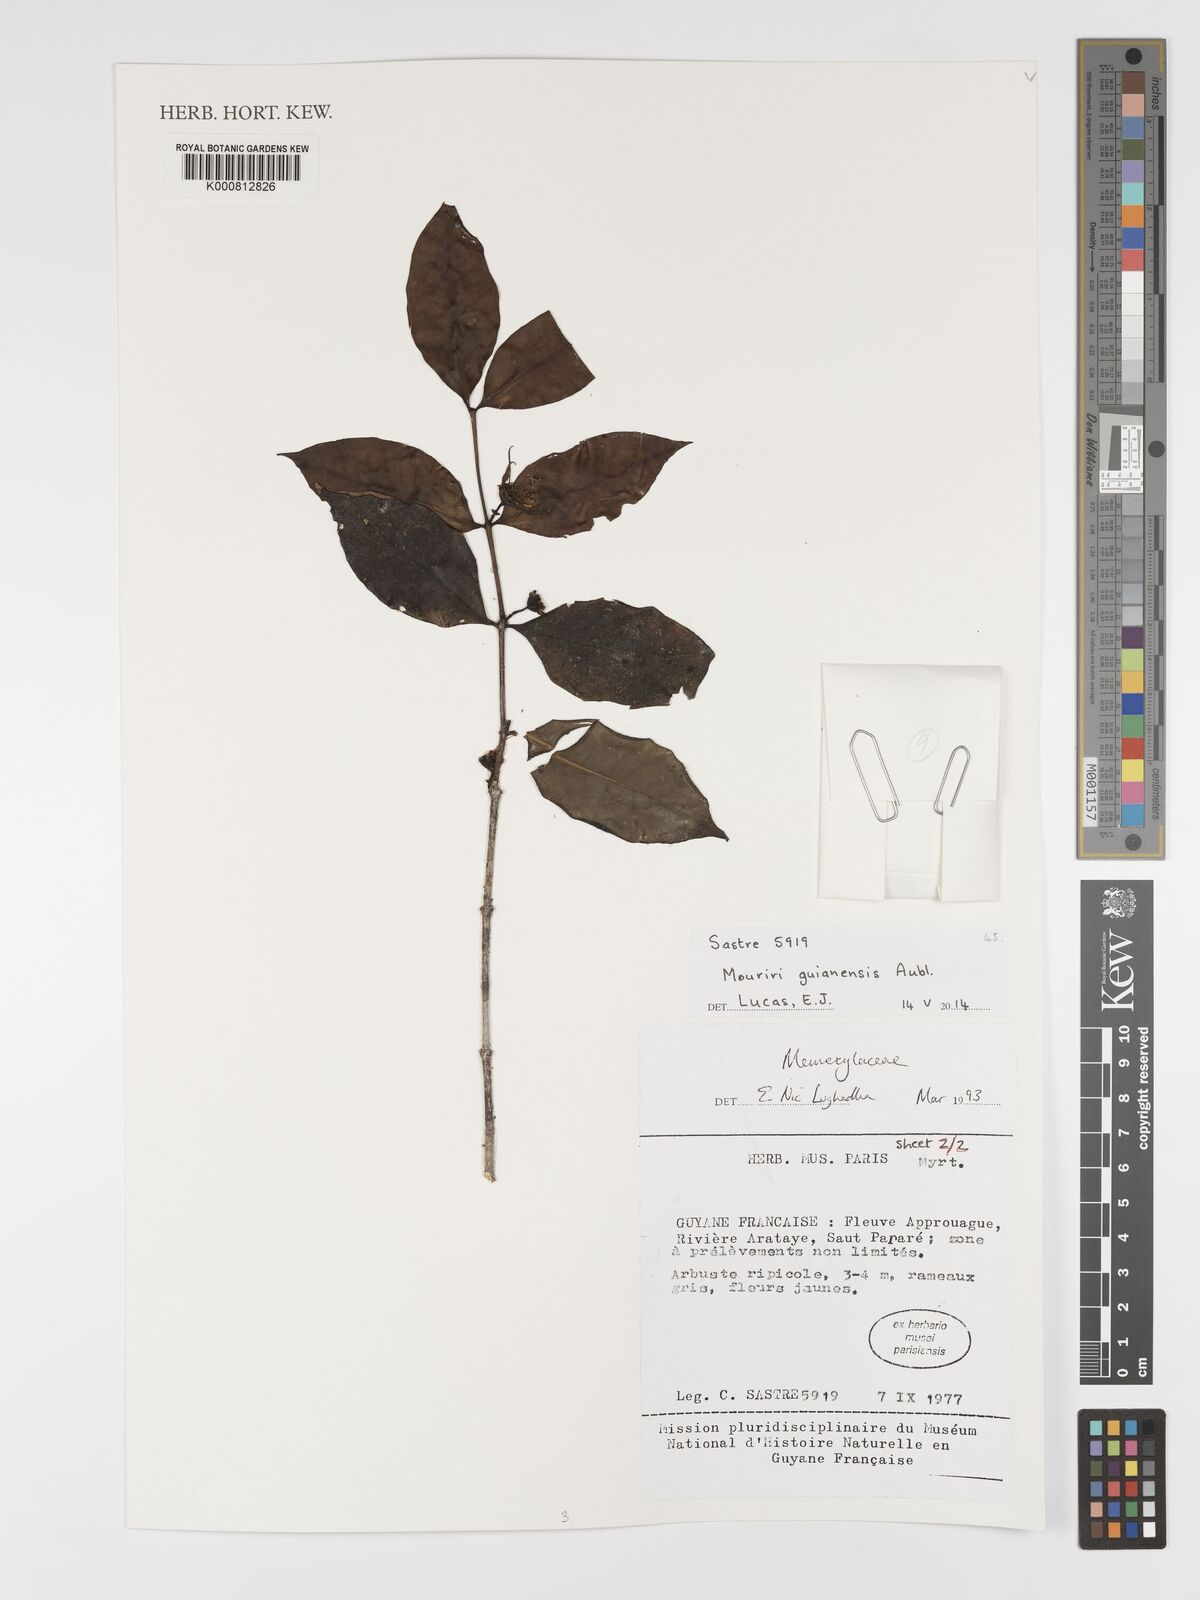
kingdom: Plantae
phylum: Tracheophyta
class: Magnoliopsida
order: Myrtales
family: Melastomataceae
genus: Mouriri
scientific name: Mouriri guianensis
